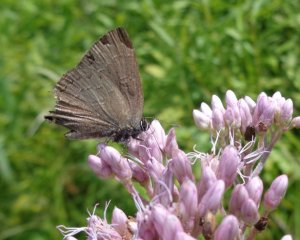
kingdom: Animalia
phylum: Arthropoda
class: Insecta
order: Lepidoptera
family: Lycaenidae
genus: Satyrium
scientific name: Satyrium calanus
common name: Banded Hairstreak
